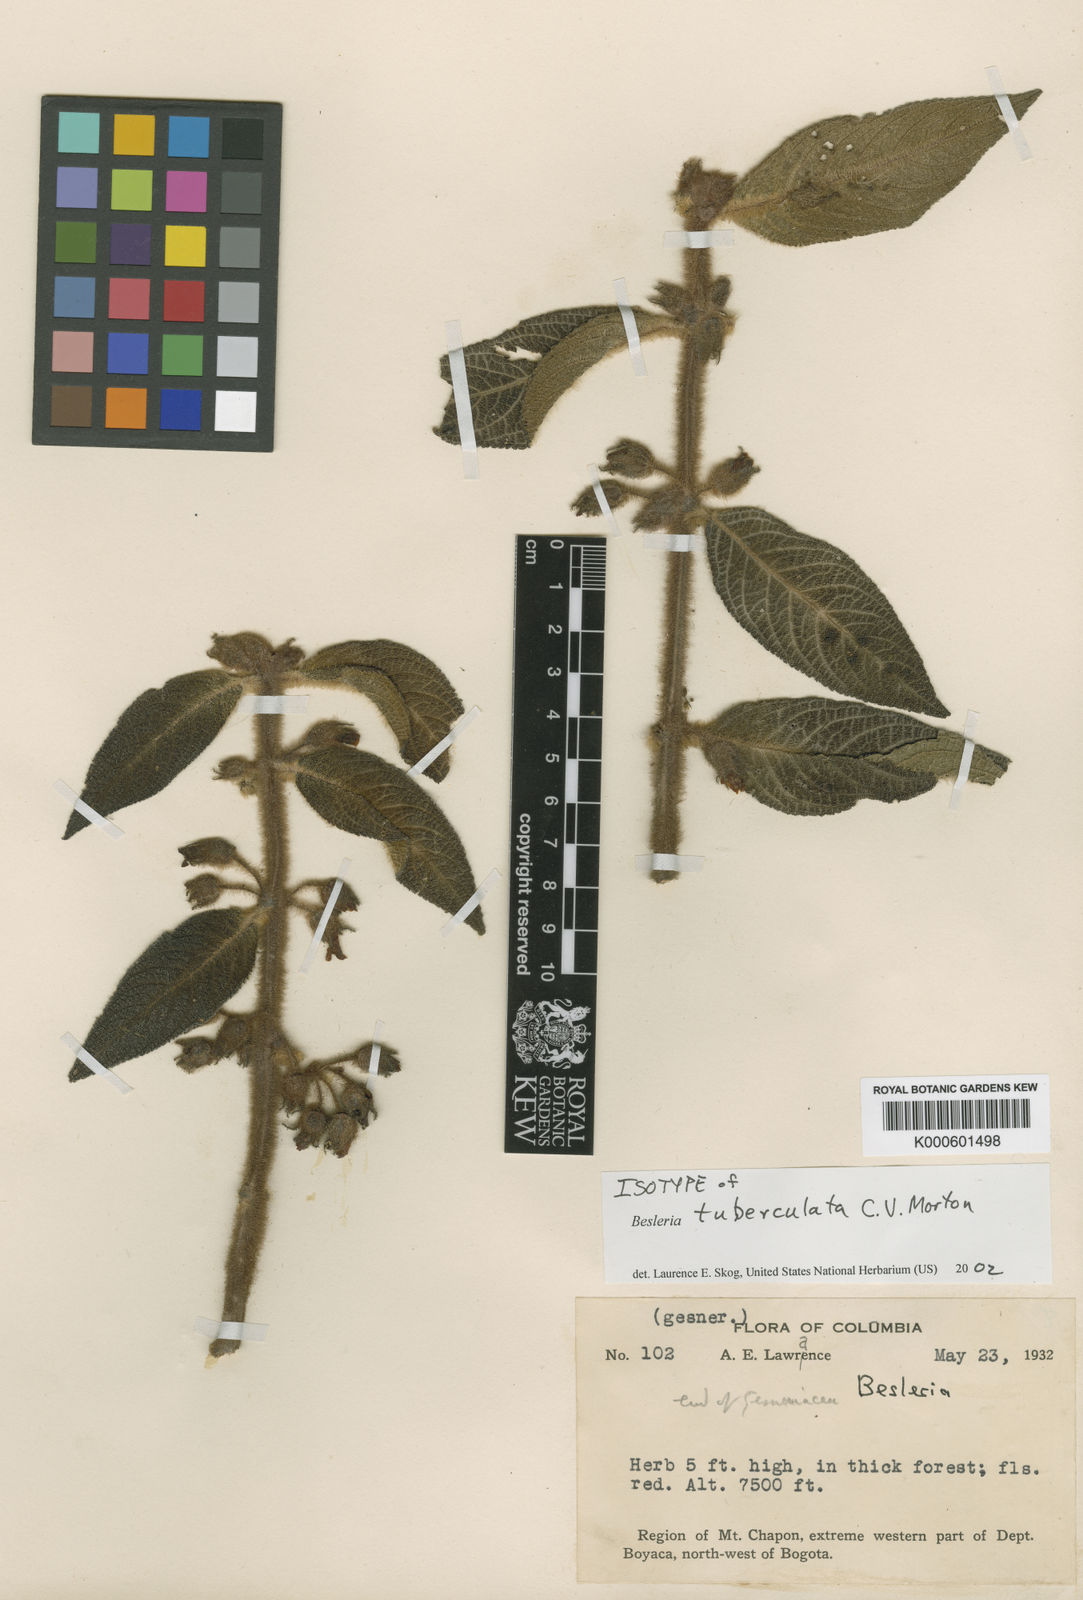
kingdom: Plantae
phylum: Tracheophyta
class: Magnoliopsida
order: Lamiales
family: Gesneriaceae
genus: Besleria
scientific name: Besleria tuberculata
